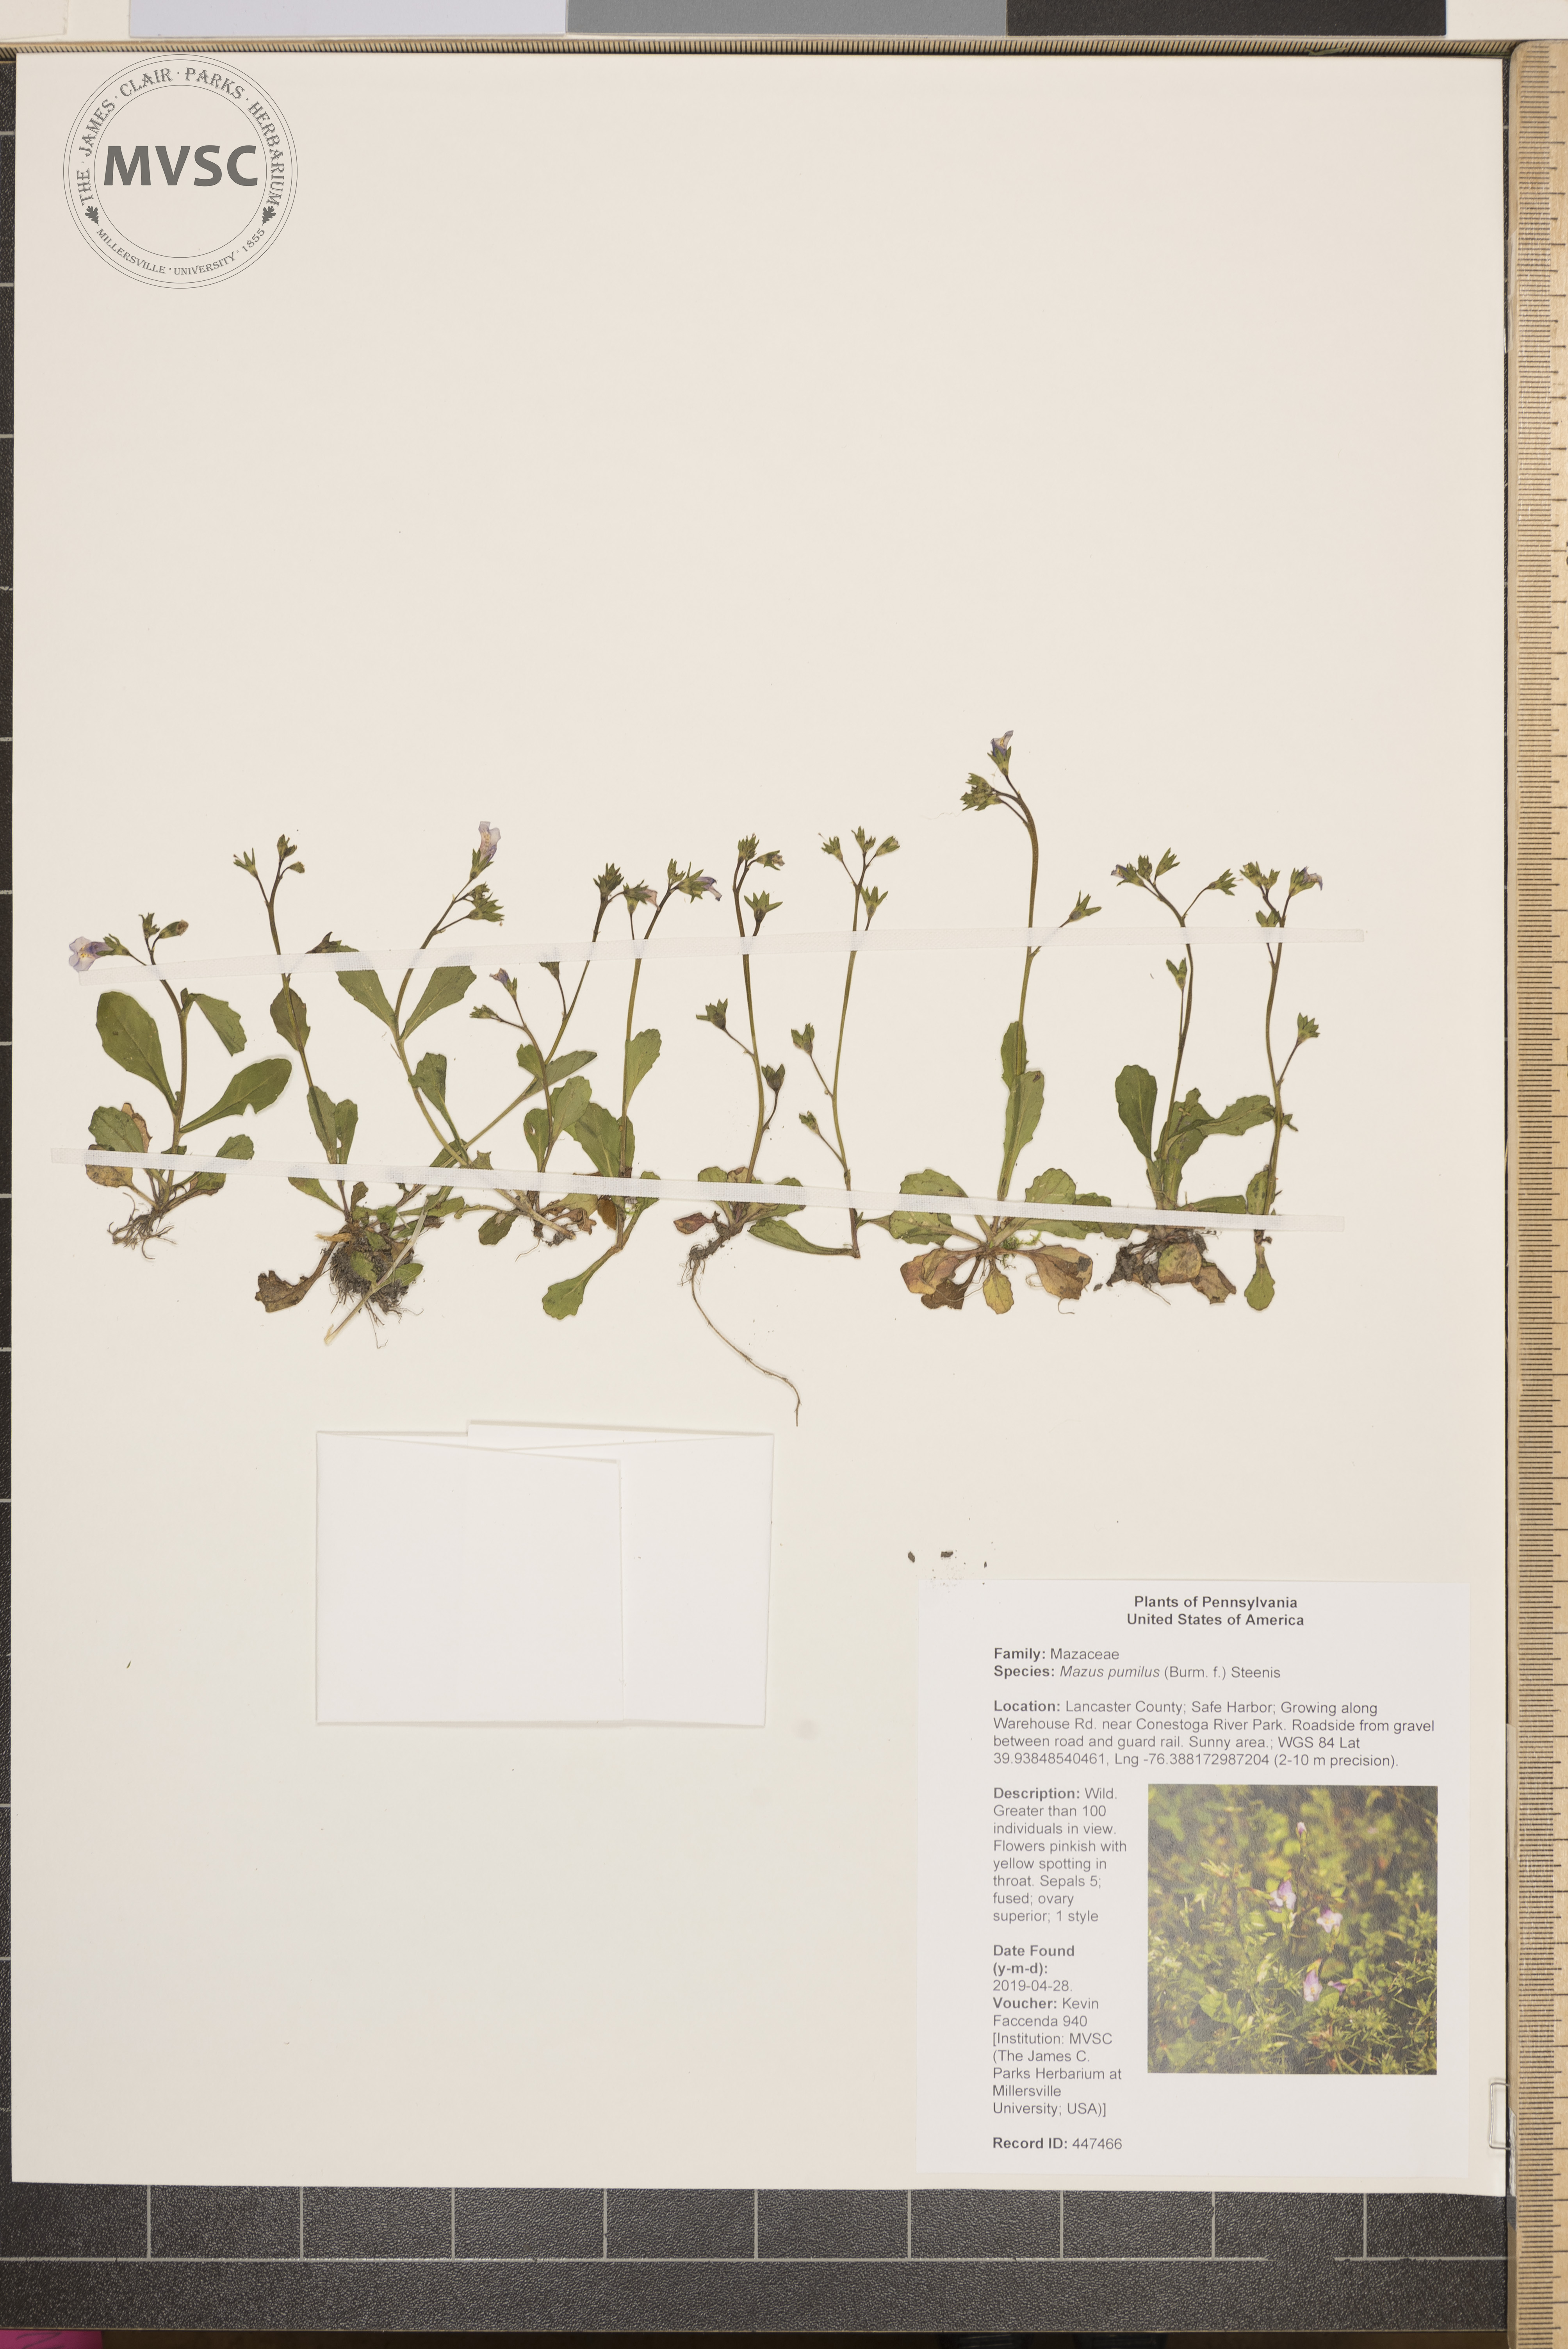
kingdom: Plantae
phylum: Tracheophyta
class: Magnoliopsida
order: Lamiales
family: Mazaceae
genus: Mazus
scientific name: Mazus pumilus
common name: Japanese mazus
